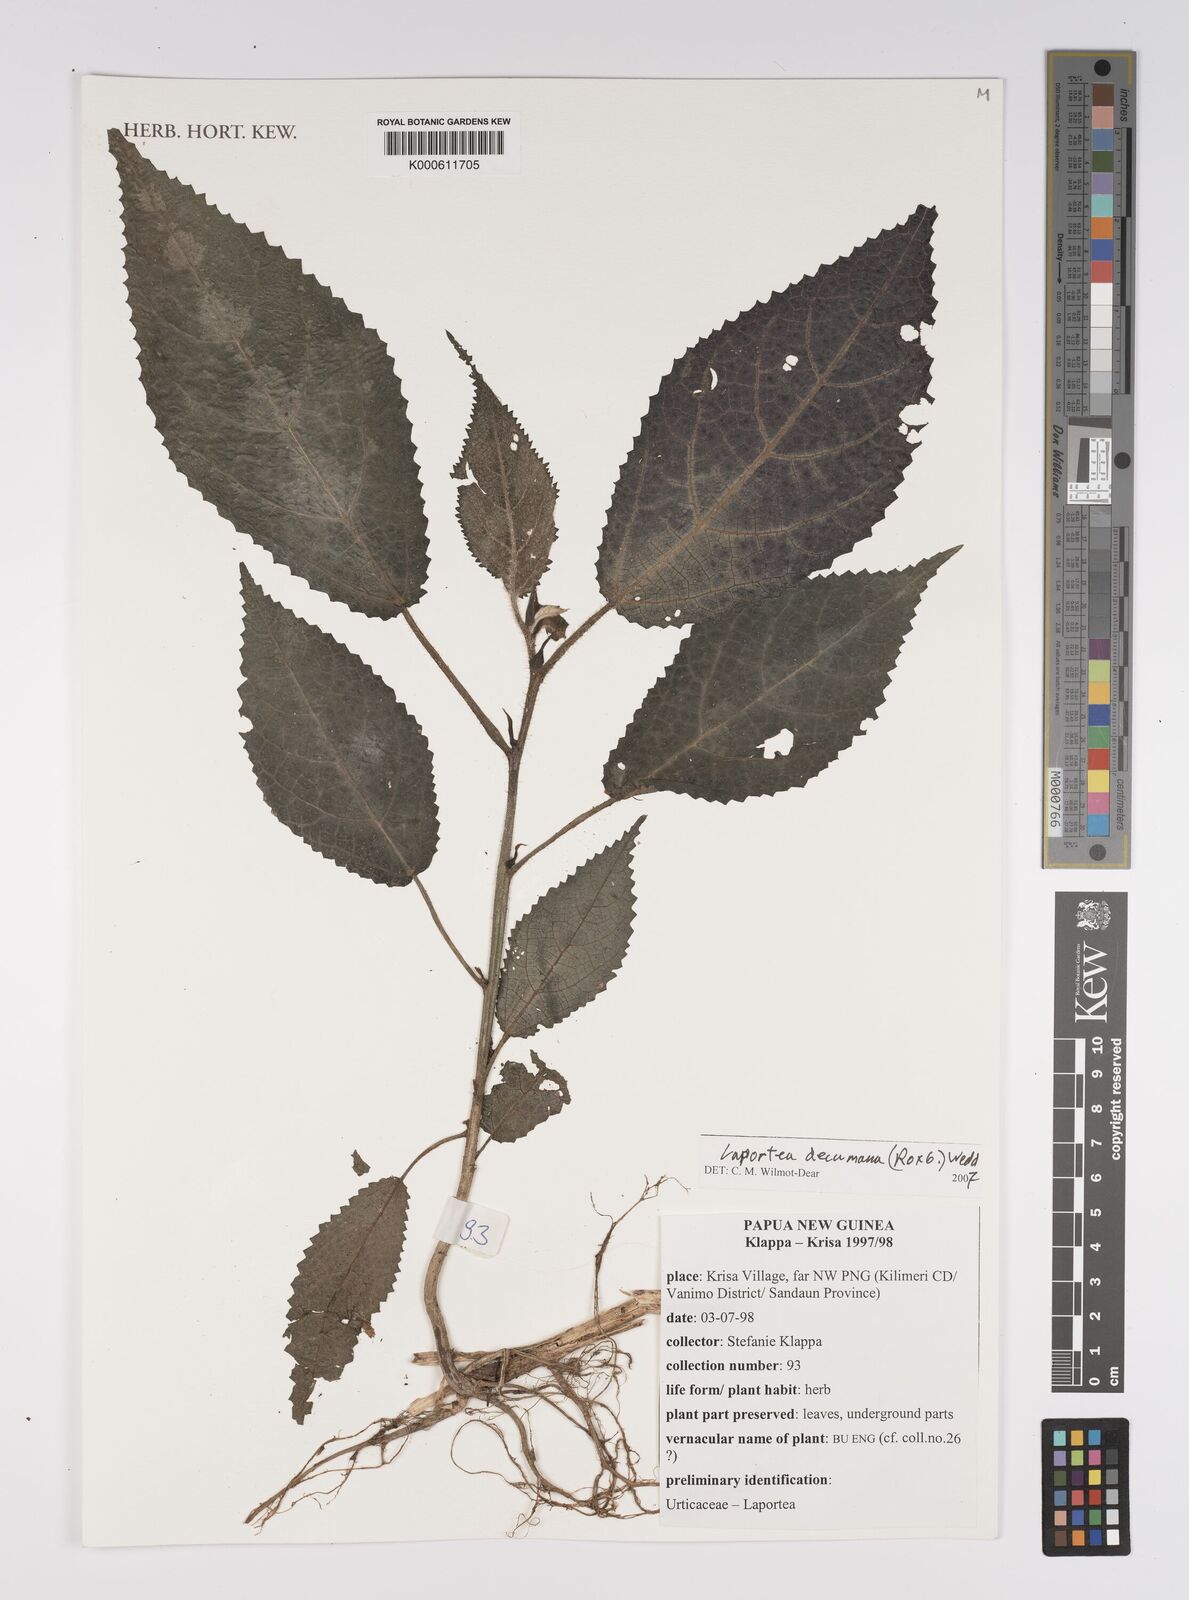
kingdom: Plantae
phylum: Tracheophyta
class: Magnoliopsida
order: Rosales
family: Urticaceae
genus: Laportea
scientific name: Laportea decumana
